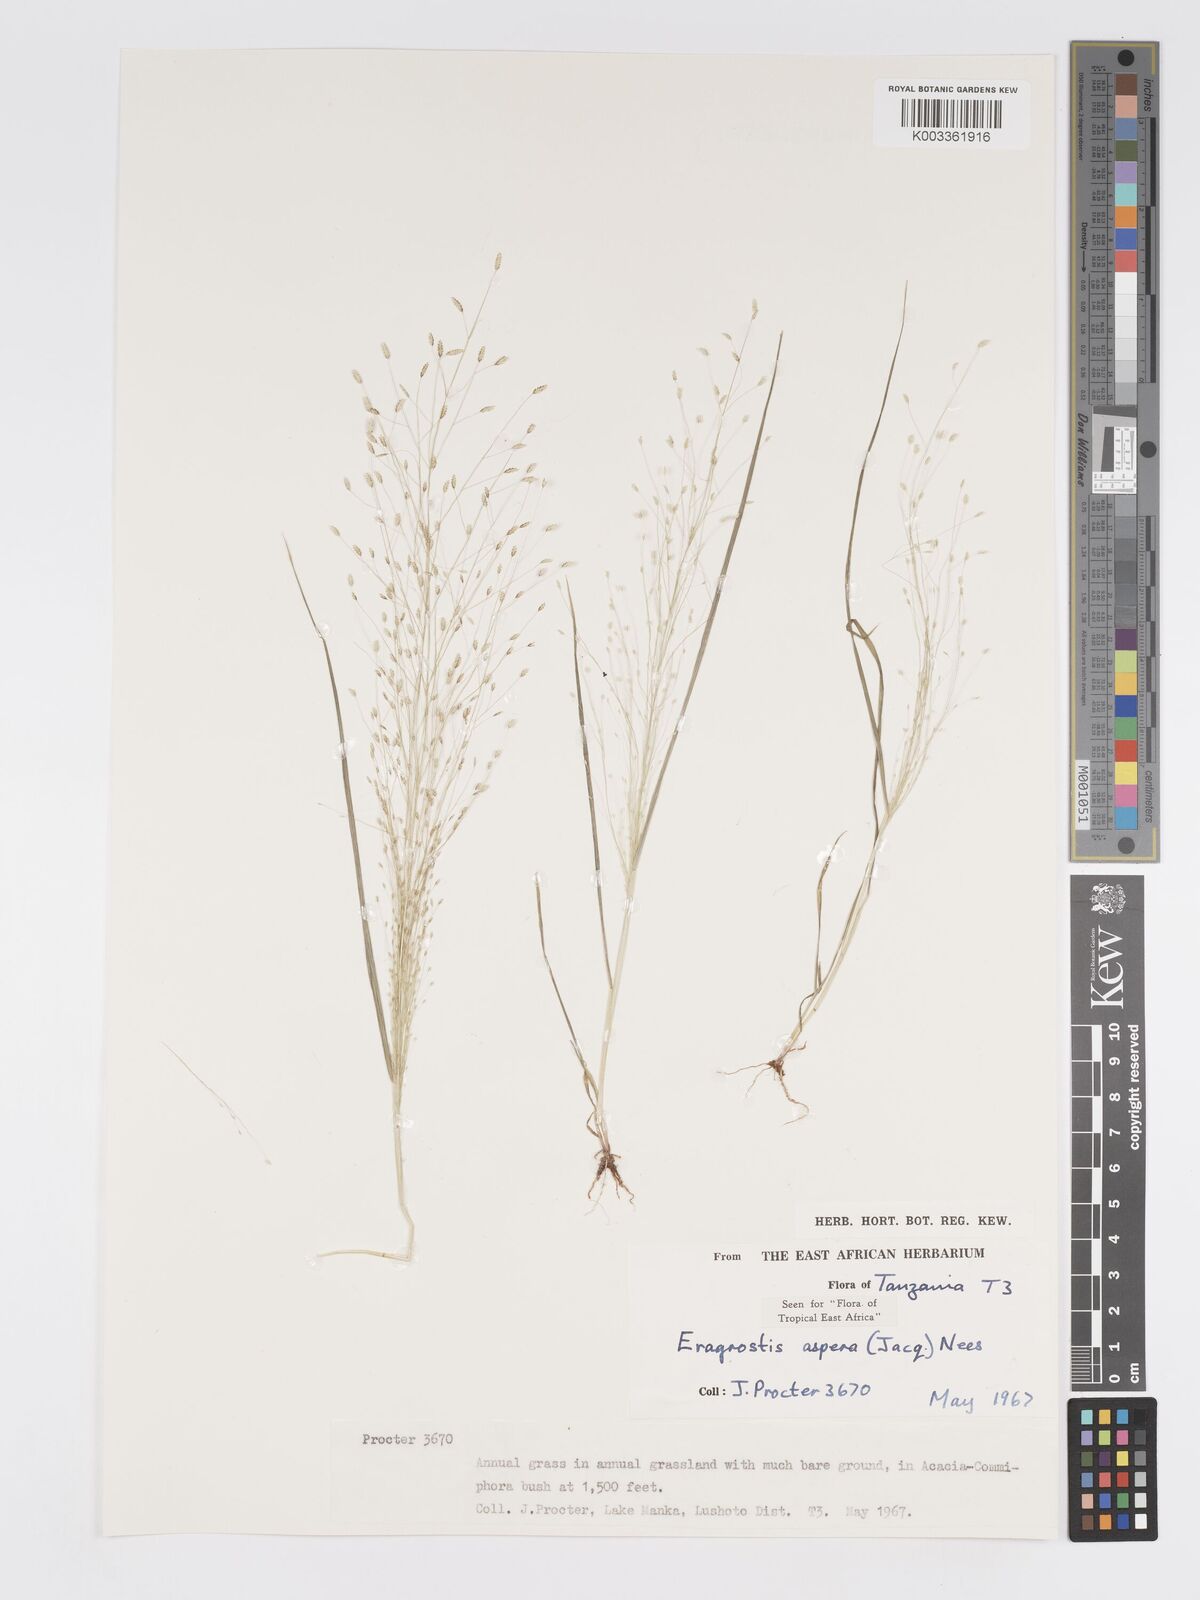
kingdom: Plantae
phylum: Tracheophyta
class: Liliopsida
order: Poales
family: Poaceae
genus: Eragrostis
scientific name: Eragrostis aspera
